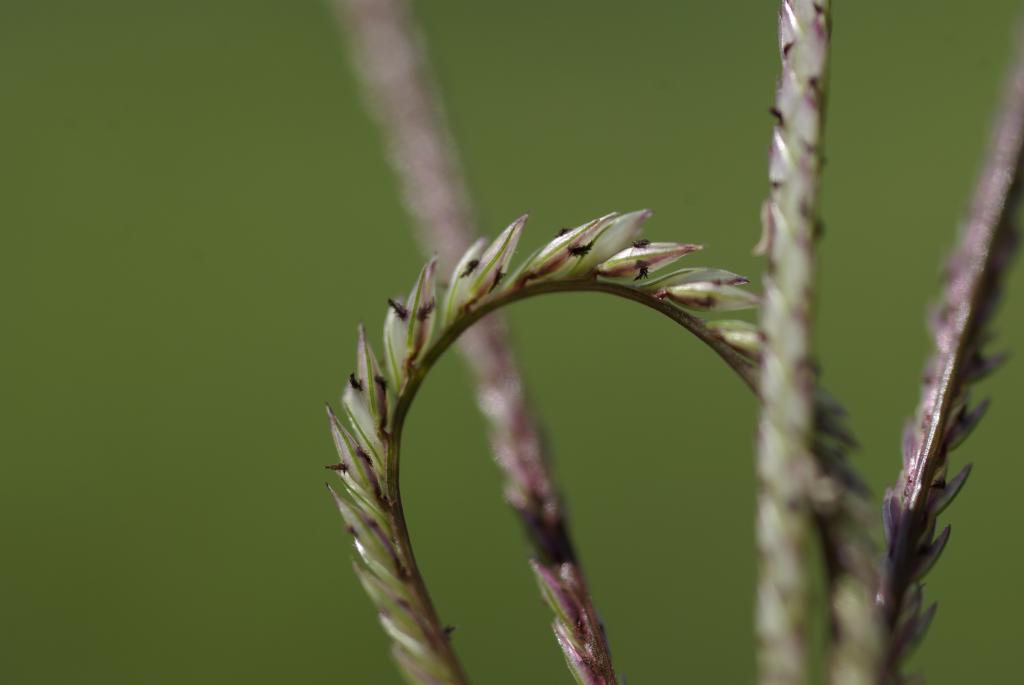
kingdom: Plantae
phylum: Tracheophyta
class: Liliopsida
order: Poales
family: Poaceae
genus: Cynodon
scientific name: Cynodon nlemfuensis
